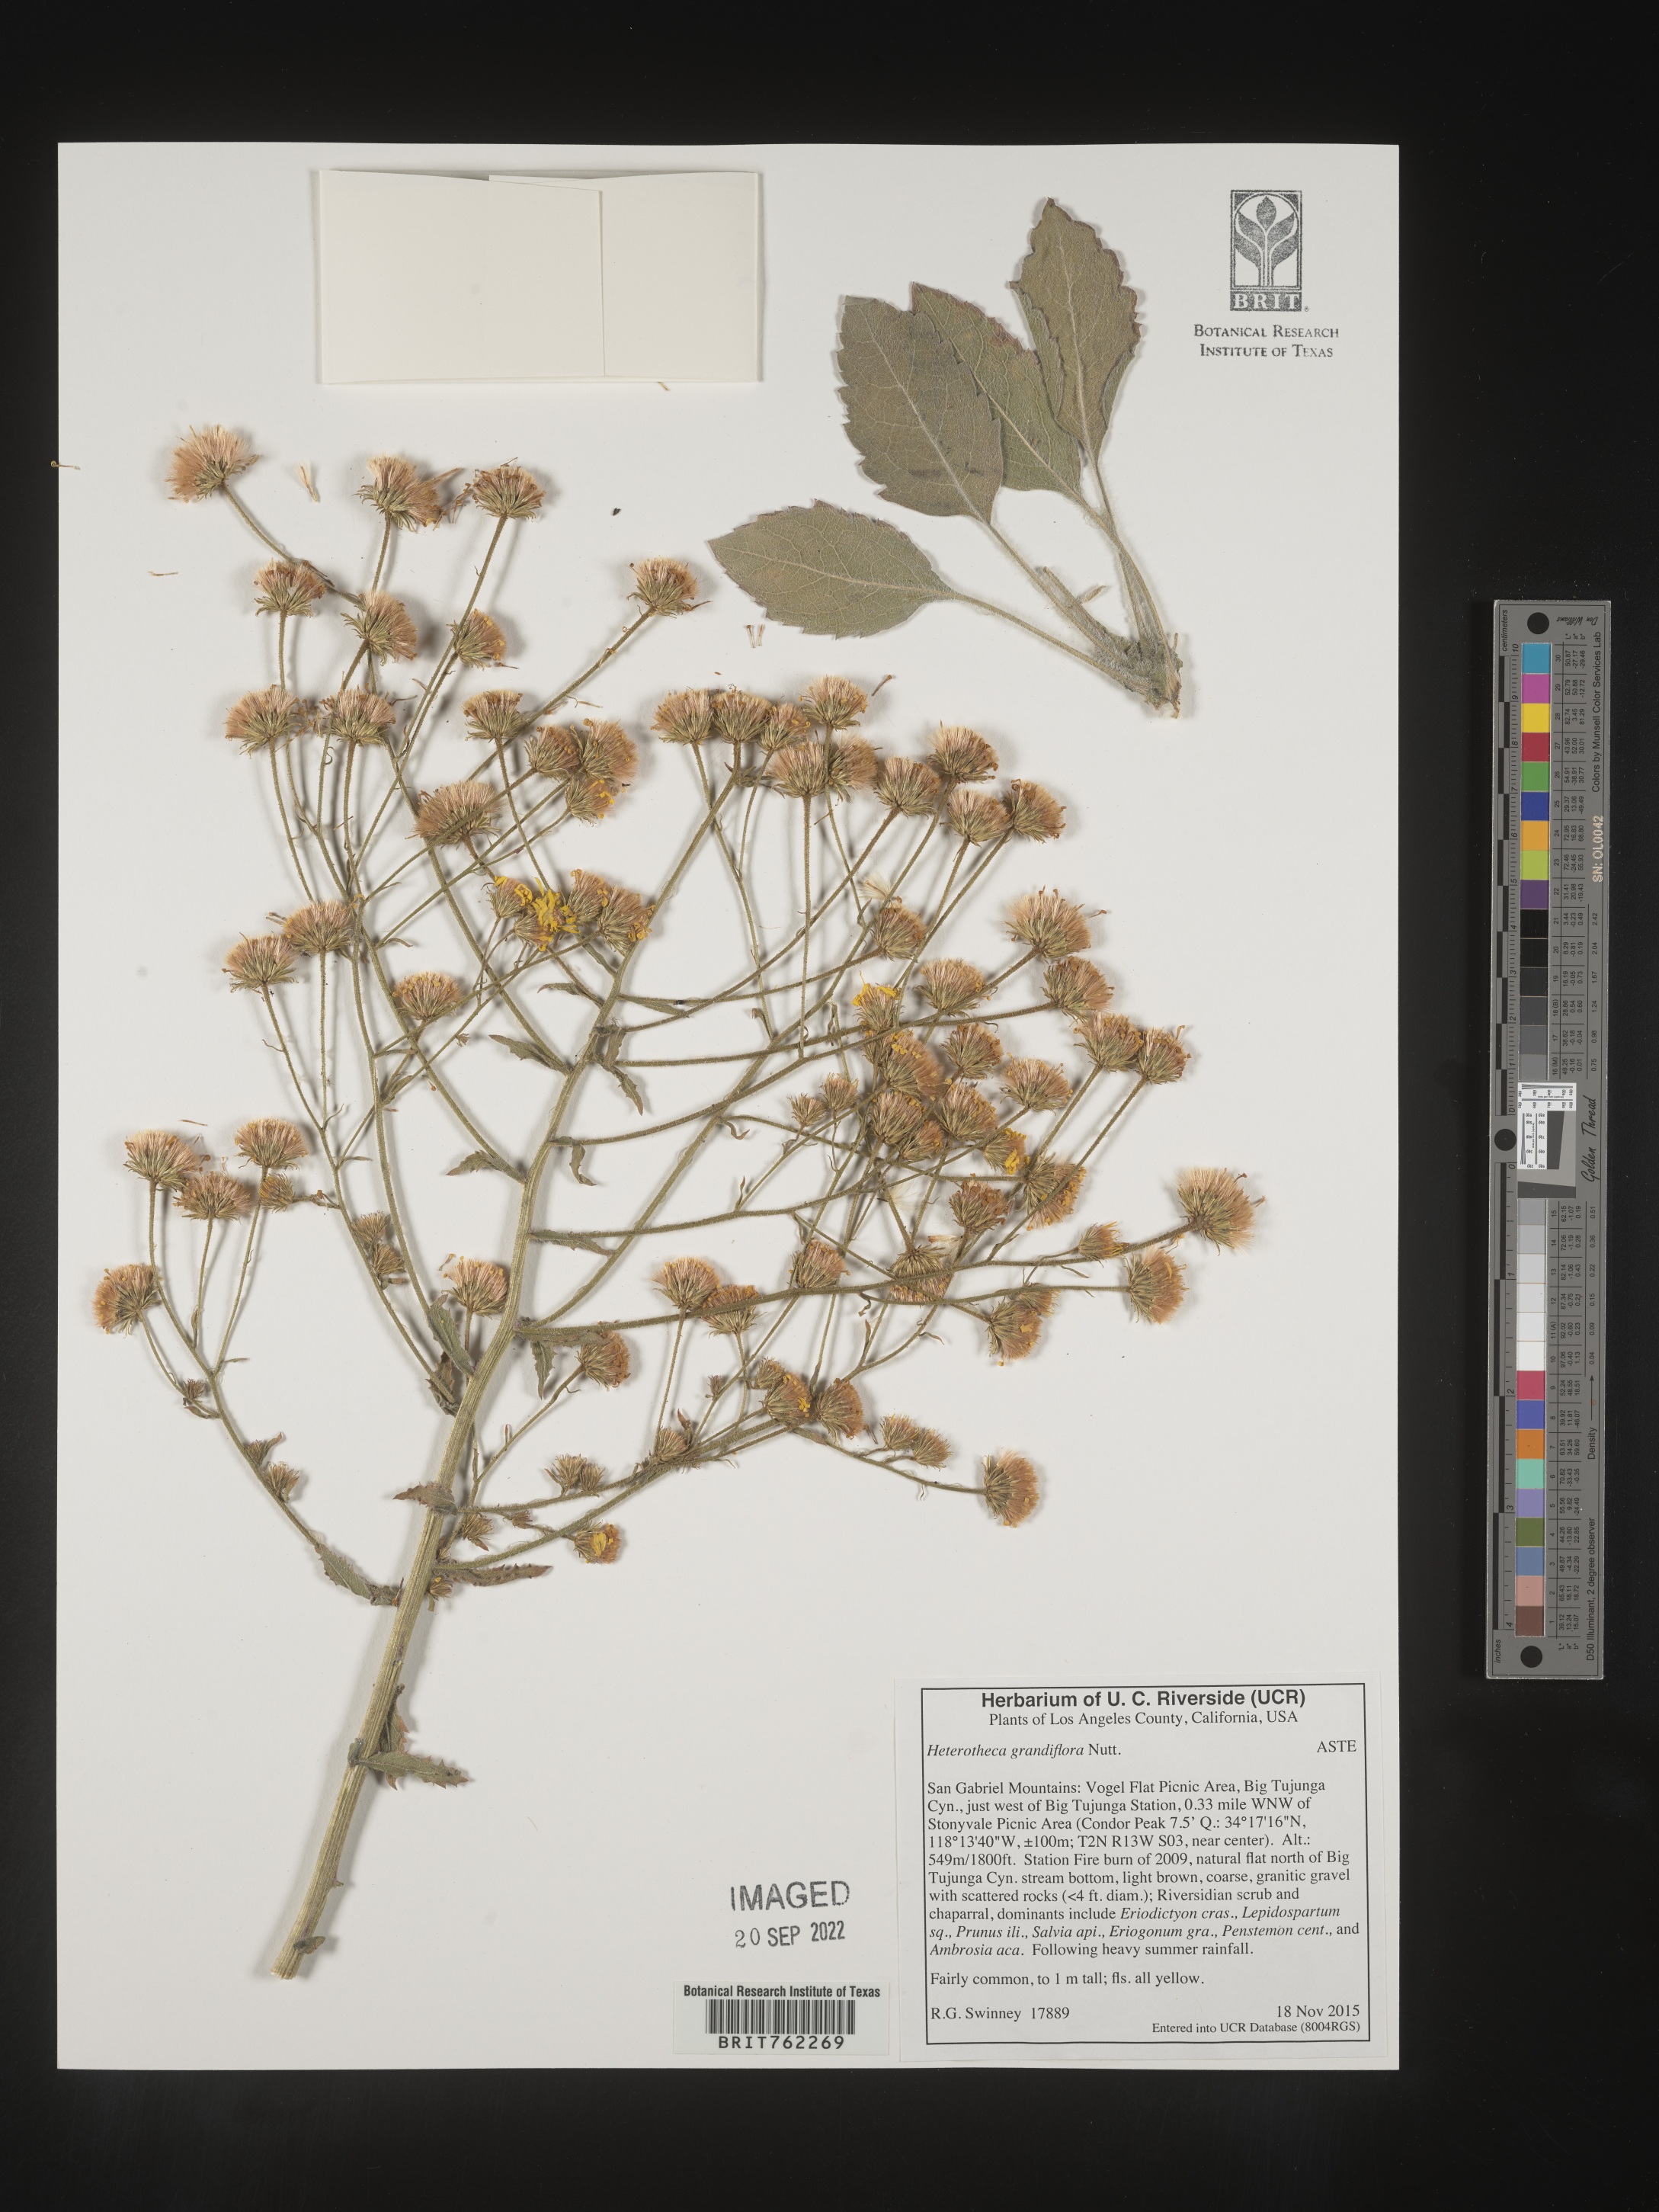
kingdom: Plantae
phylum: Tracheophyta
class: Magnoliopsida
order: Asterales
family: Asteraceae
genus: Heterotheca
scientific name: Heterotheca
